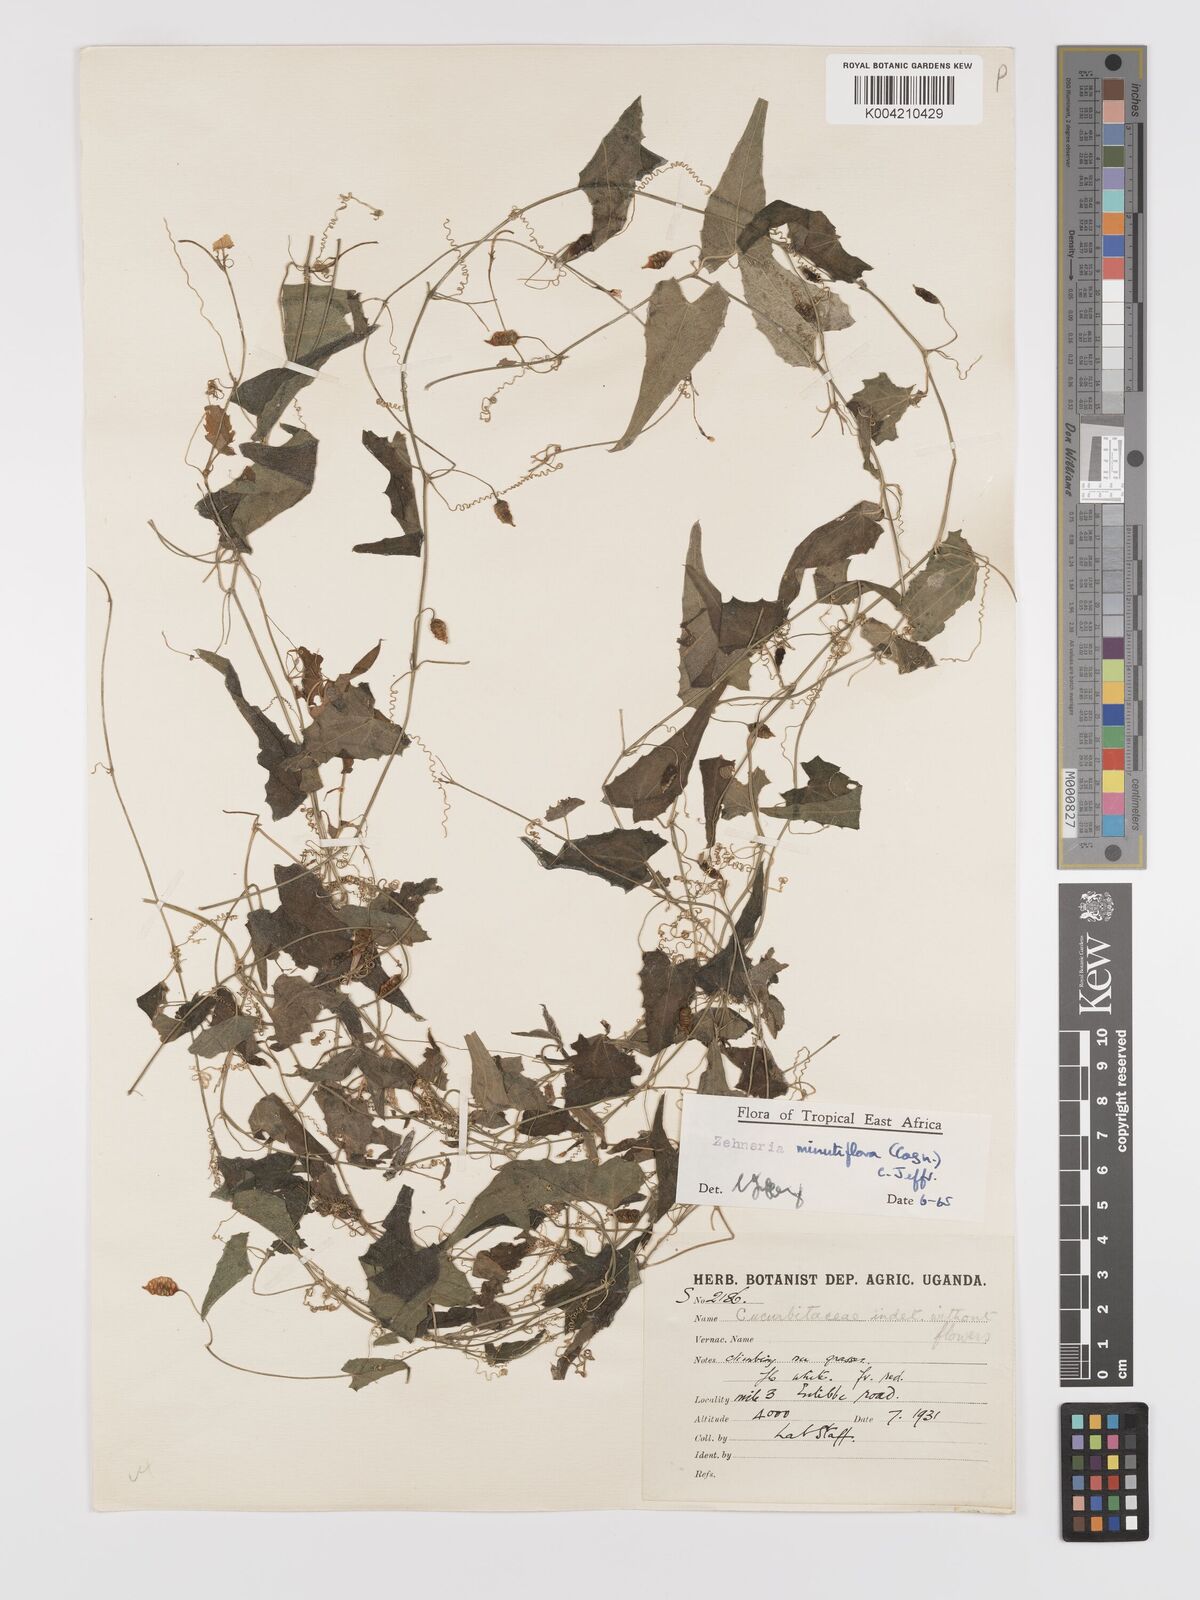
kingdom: Plantae
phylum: Tracheophyta
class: Magnoliopsida
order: Cucurbitales
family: Cucurbitaceae
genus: Zehneria
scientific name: Zehneria minutiflora
